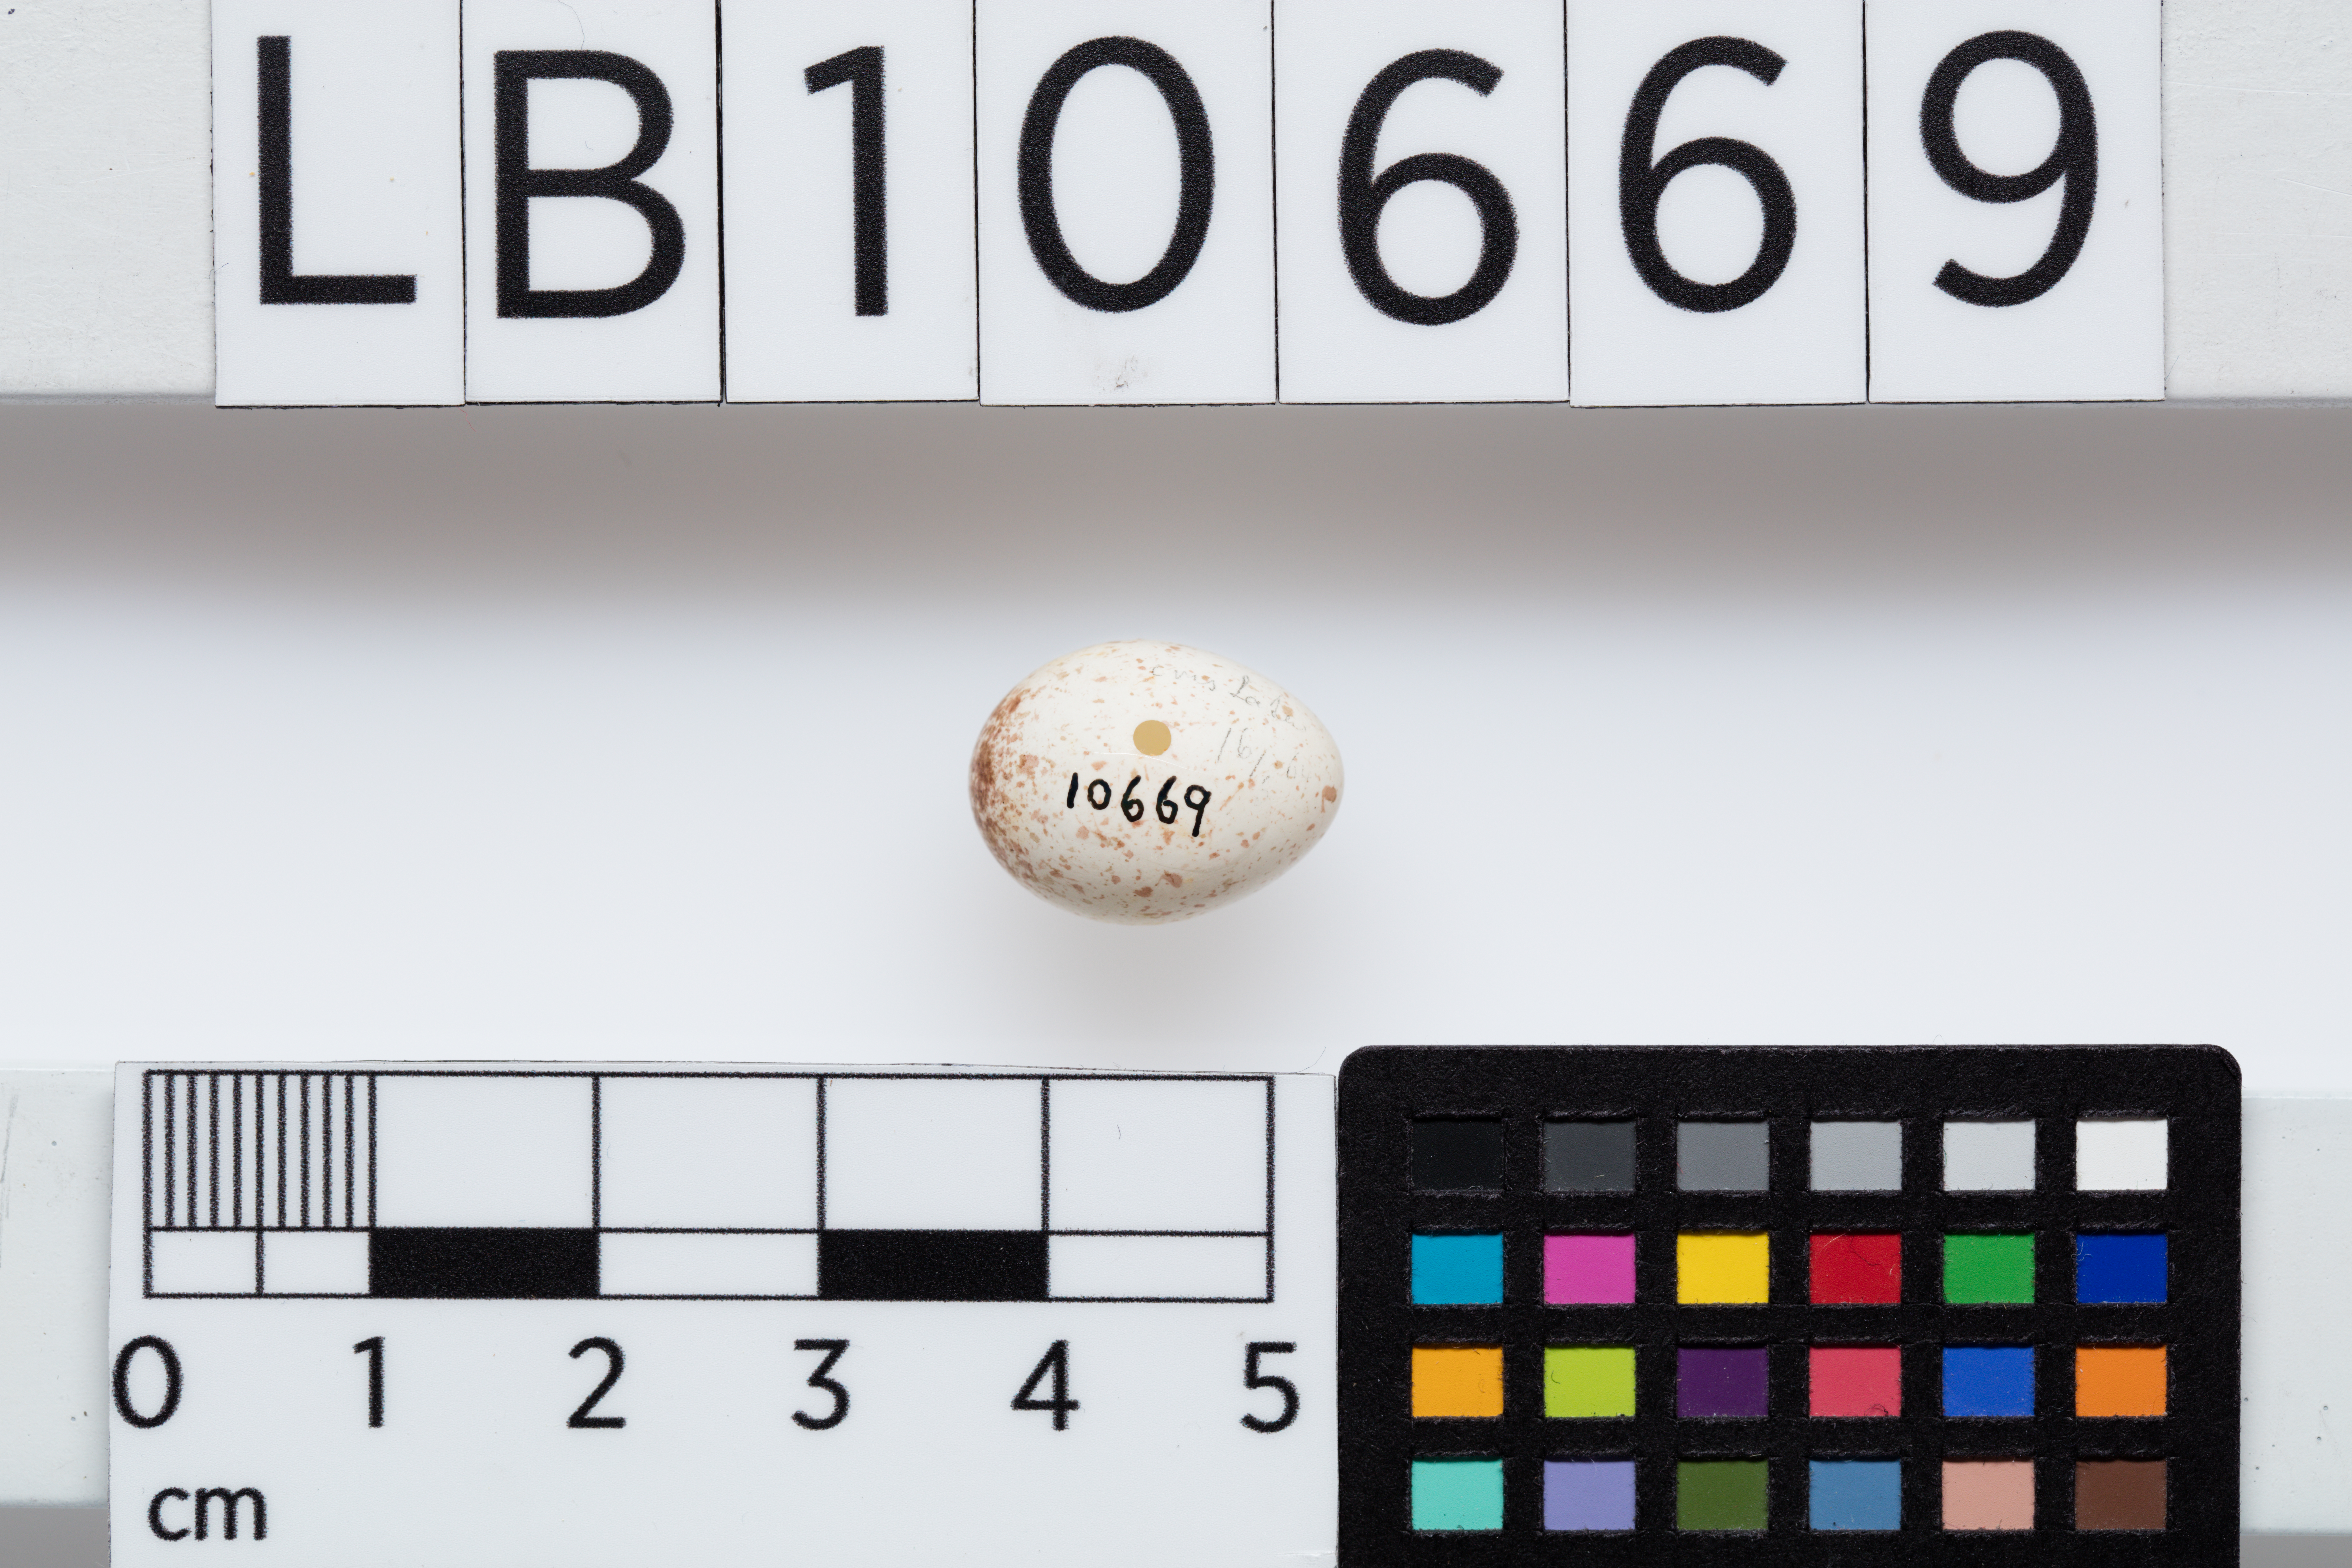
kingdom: Animalia
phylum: Chordata
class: Aves
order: Passeriformes
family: Paridae
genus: Lophophanes
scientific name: Lophophanes cristatus
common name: European crested tit
